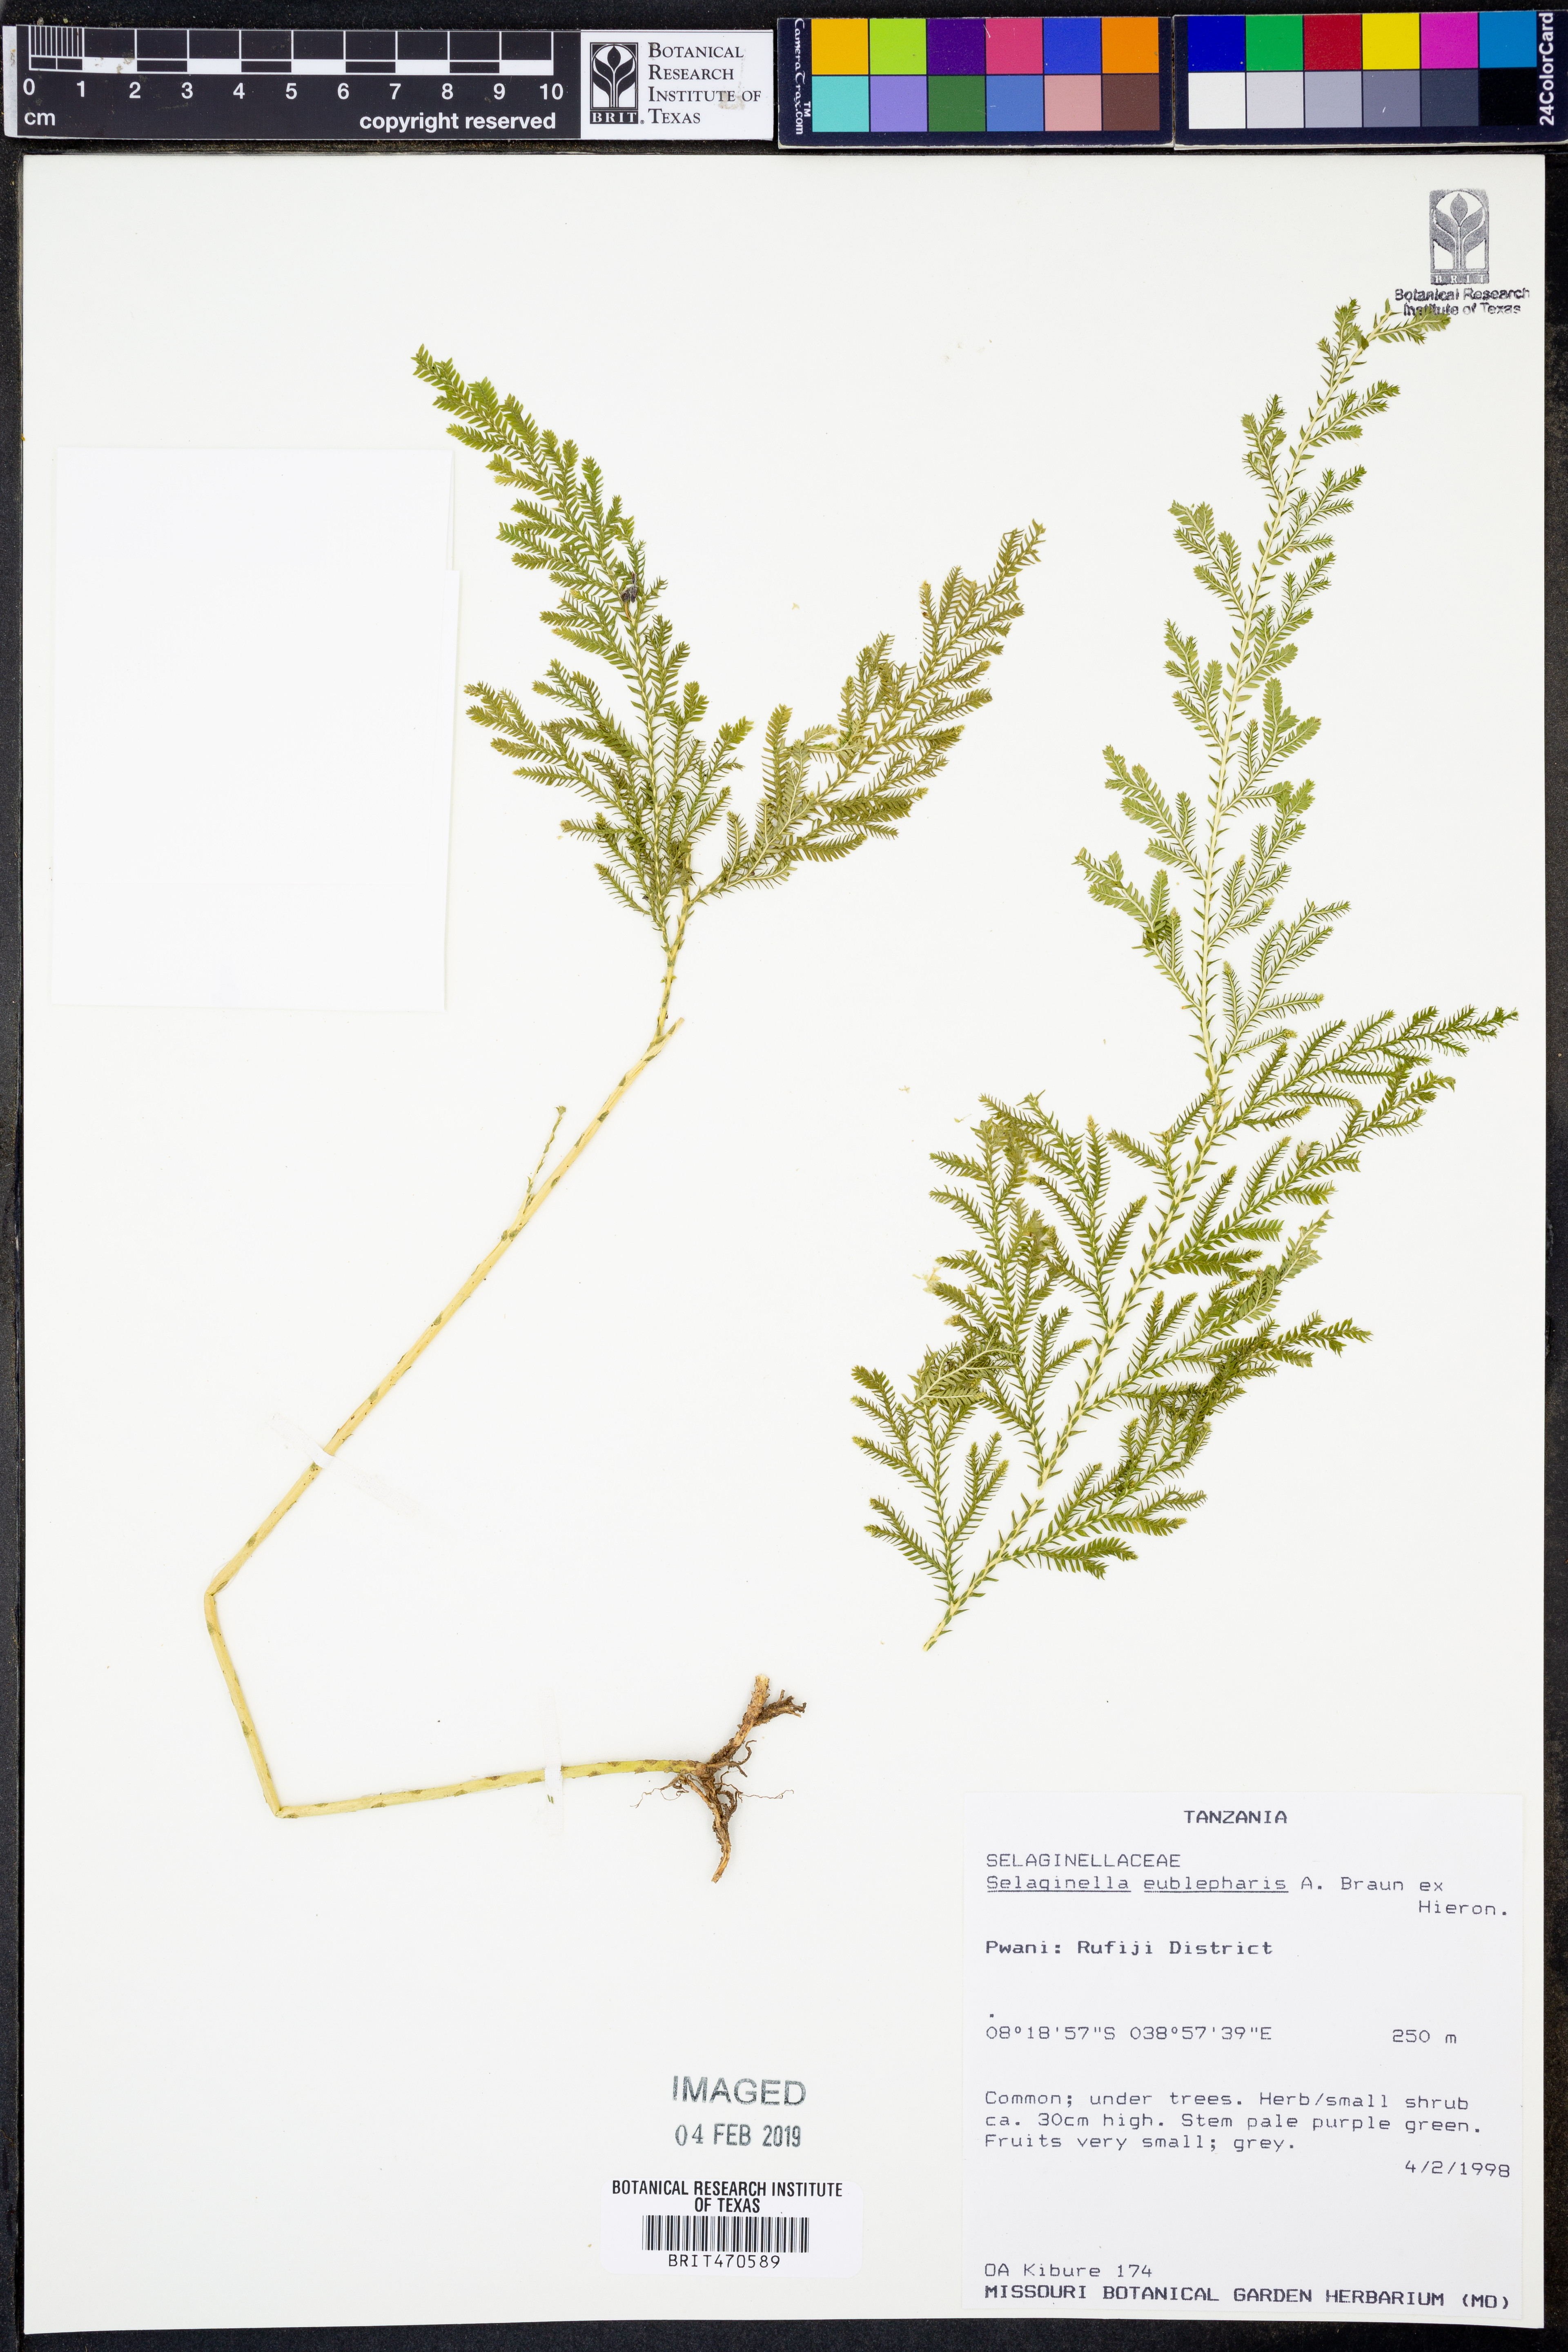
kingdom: Plantae
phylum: Tracheophyta
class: Lycopodiopsida
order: Selaginellales
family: Selaginellaceae
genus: Selaginella
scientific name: Selaginella eublepharis
